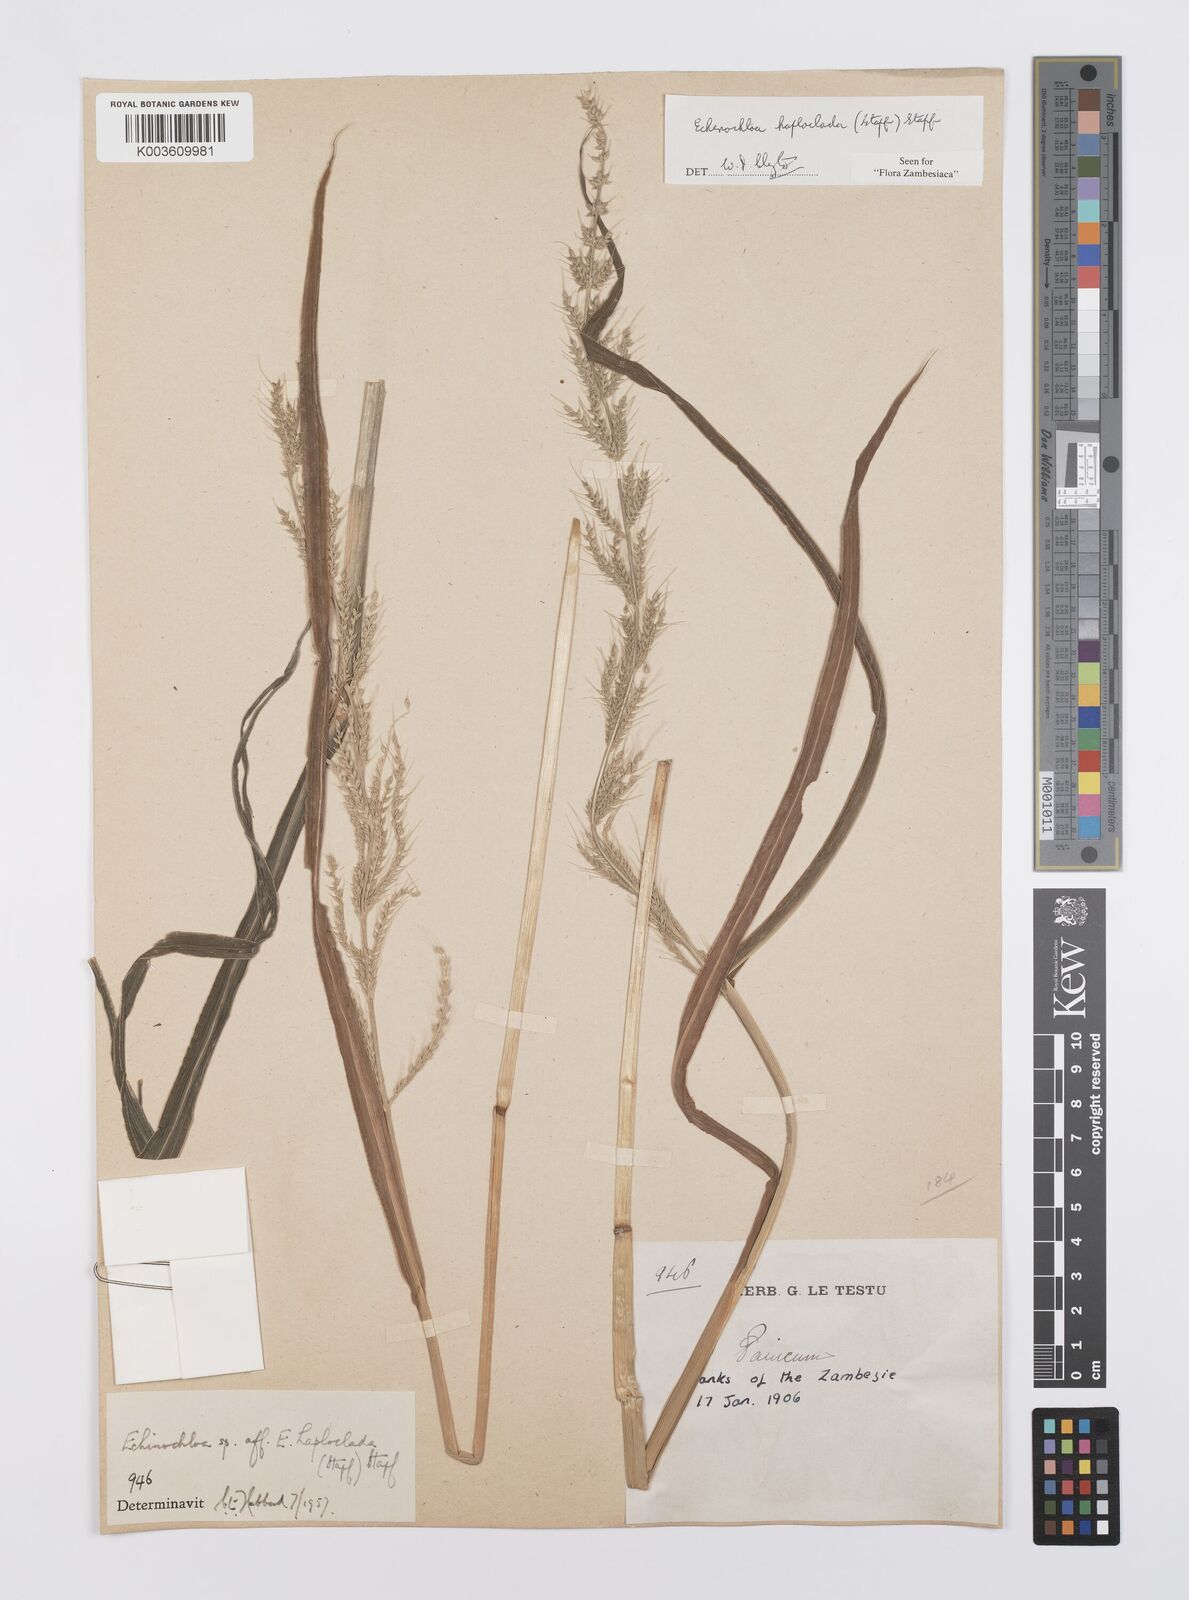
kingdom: Plantae
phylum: Tracheophyta
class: Liliopsida
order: Poales
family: Poaceae
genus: Echinochloa
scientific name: Echinochloa haploclada
